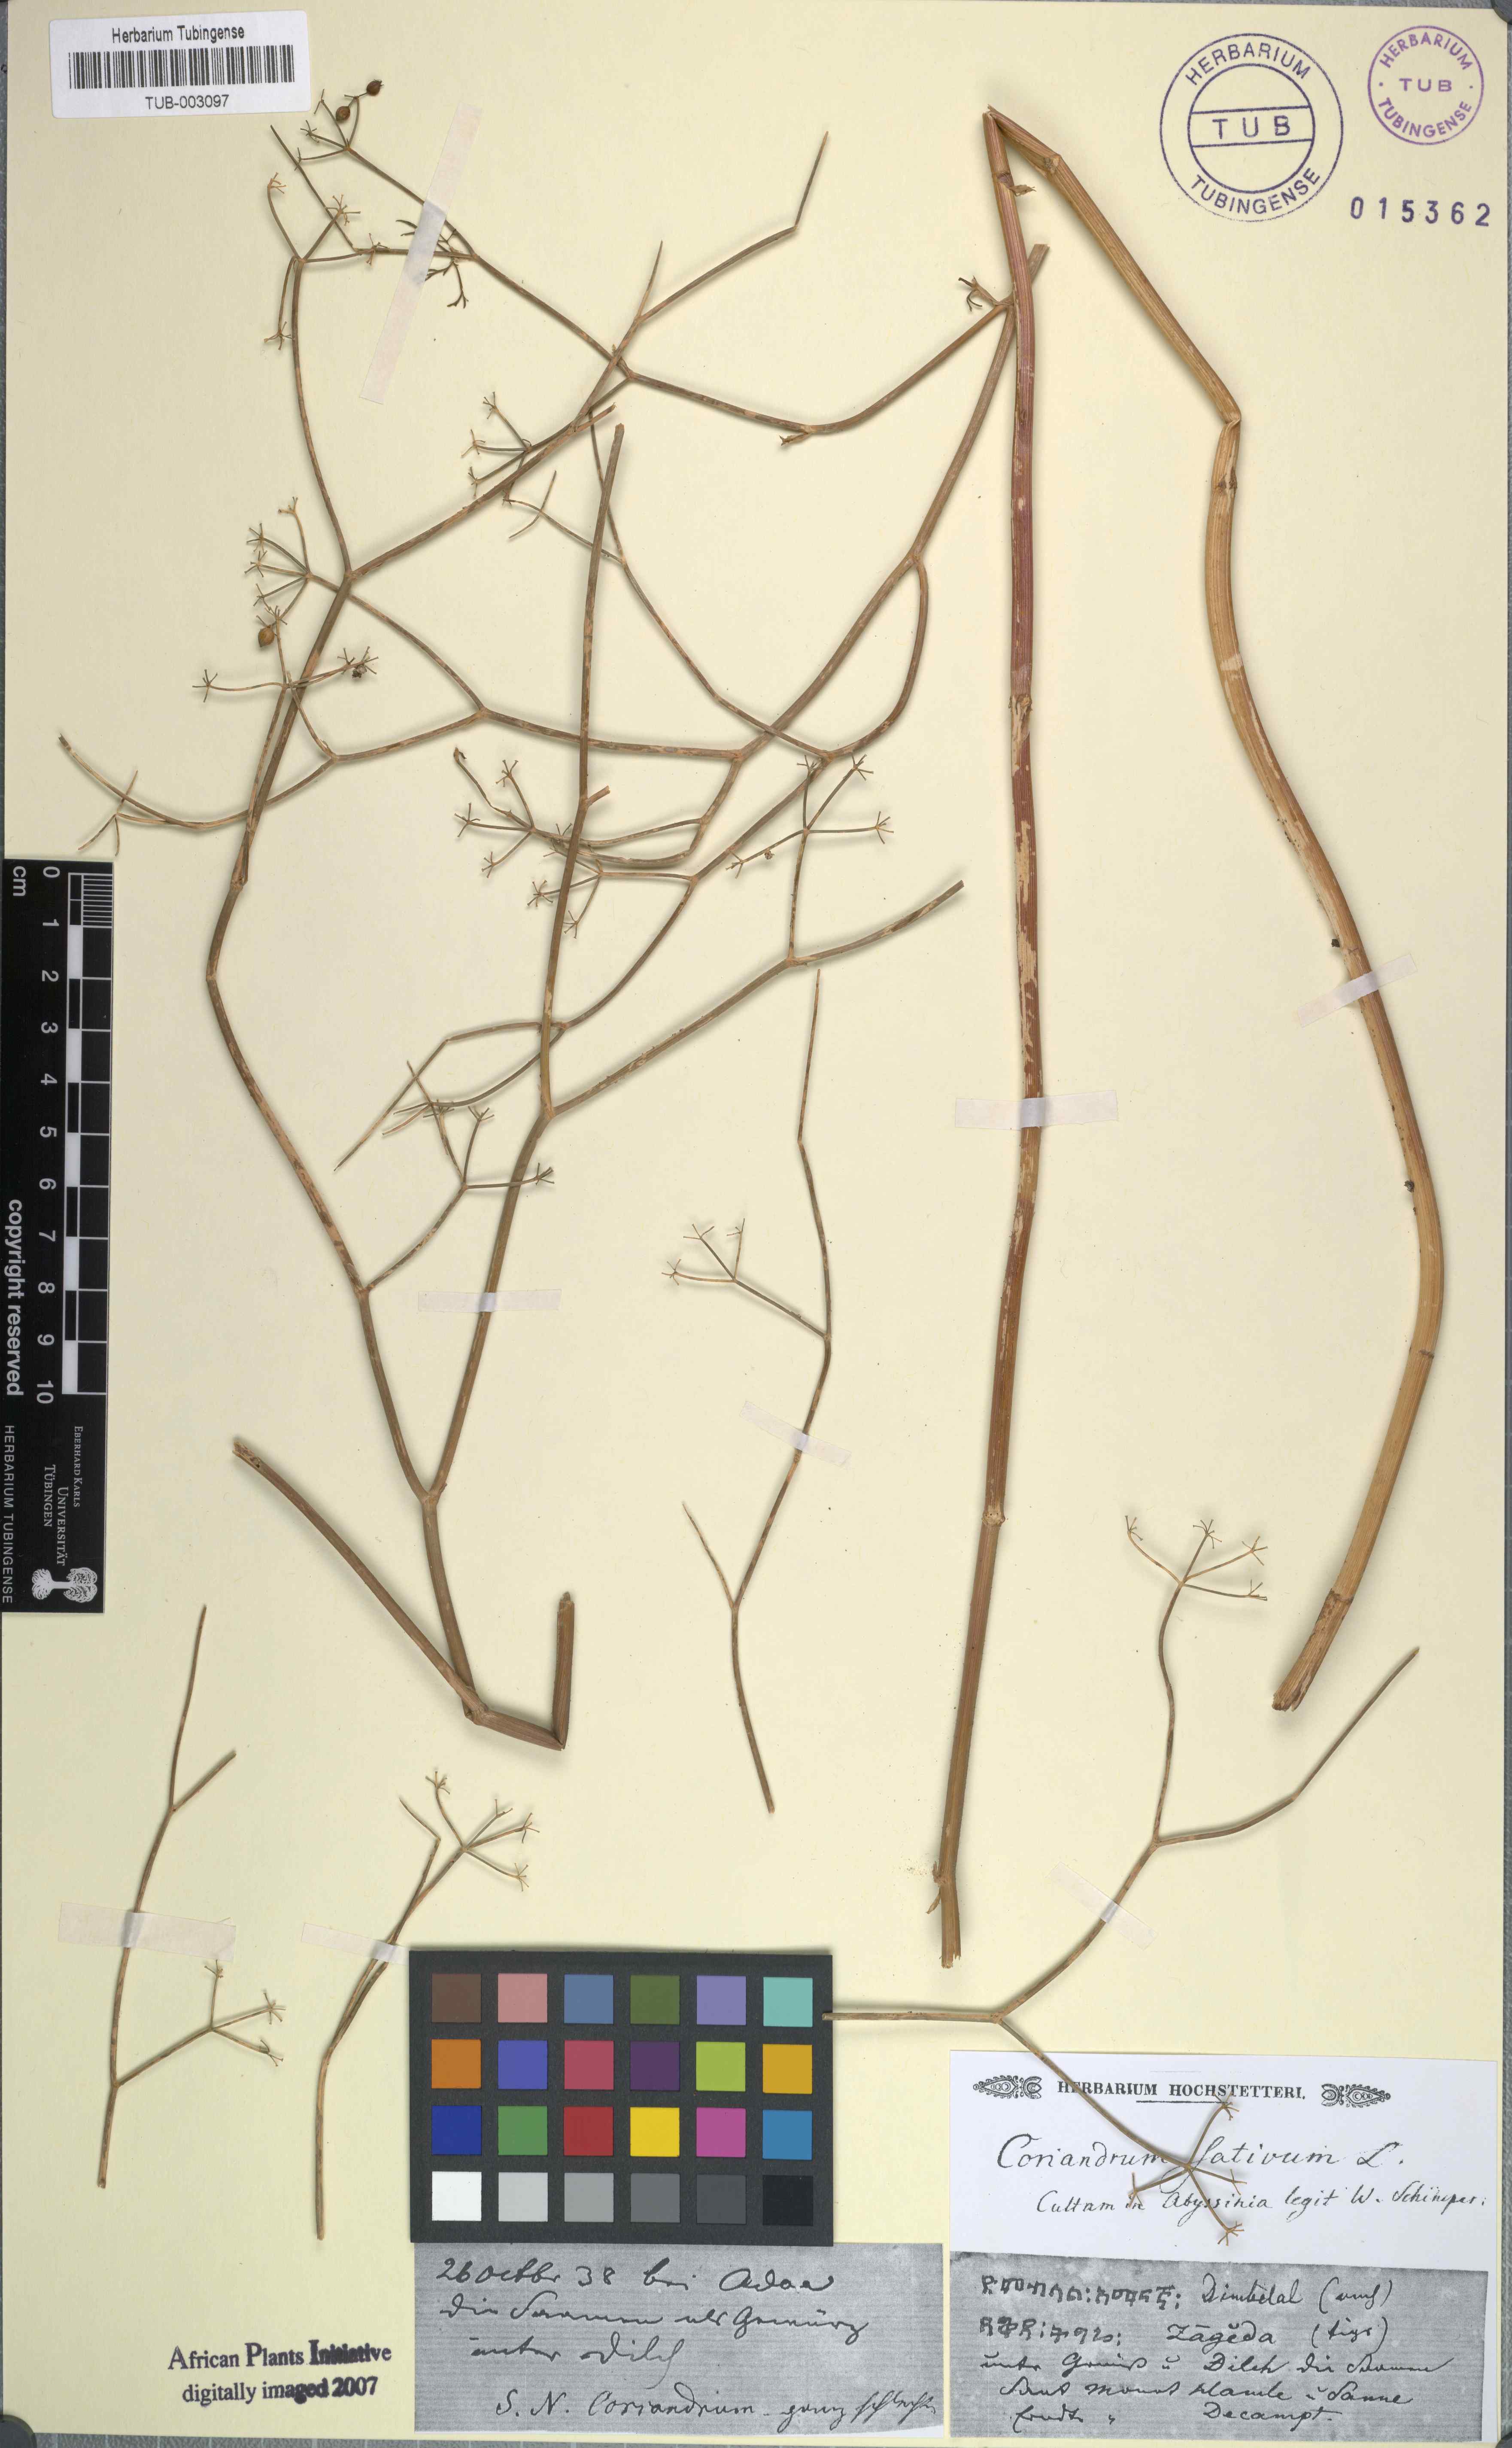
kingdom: Plantae
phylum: Tracheophyta
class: Magnoliopsida
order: Apiales
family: Apiaceae
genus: Coriandrum
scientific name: Coriandrum sativum
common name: Coriander
